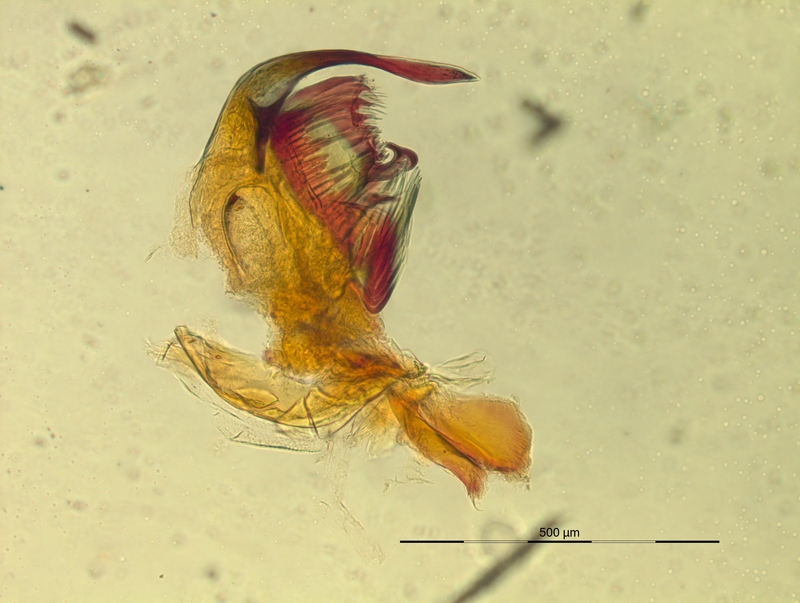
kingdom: Animalia
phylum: Arthropoda
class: Diplopoda
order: Chordeumatida
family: Craspedosomatidae
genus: Pyrgocyphosoma
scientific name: Pyrgocyphosoma armigerum
